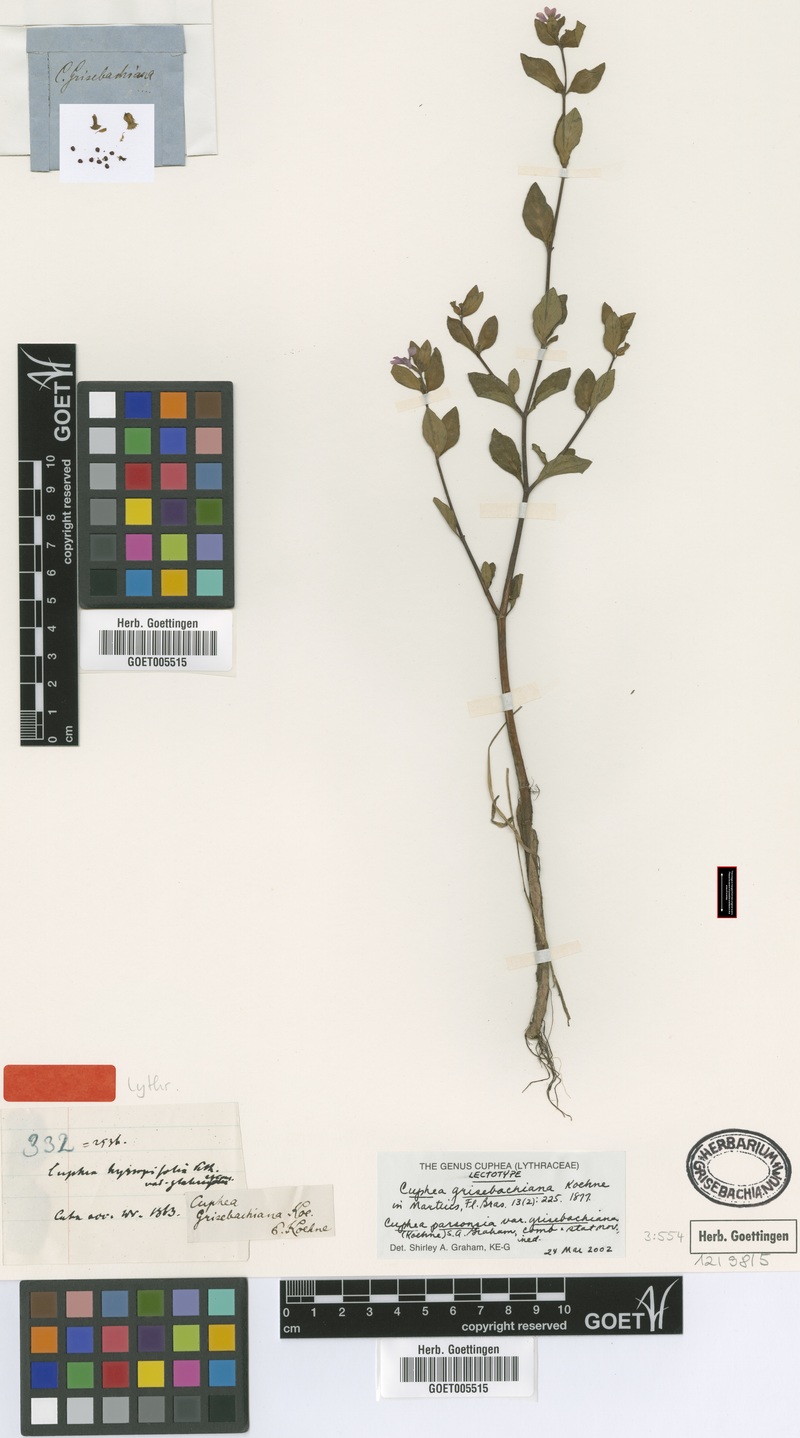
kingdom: Plantae
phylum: Tracheophyta
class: Magnoliopsida
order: Myrtales
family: Lythraceae
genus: Cuphea
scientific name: Cuphea parsonsia
